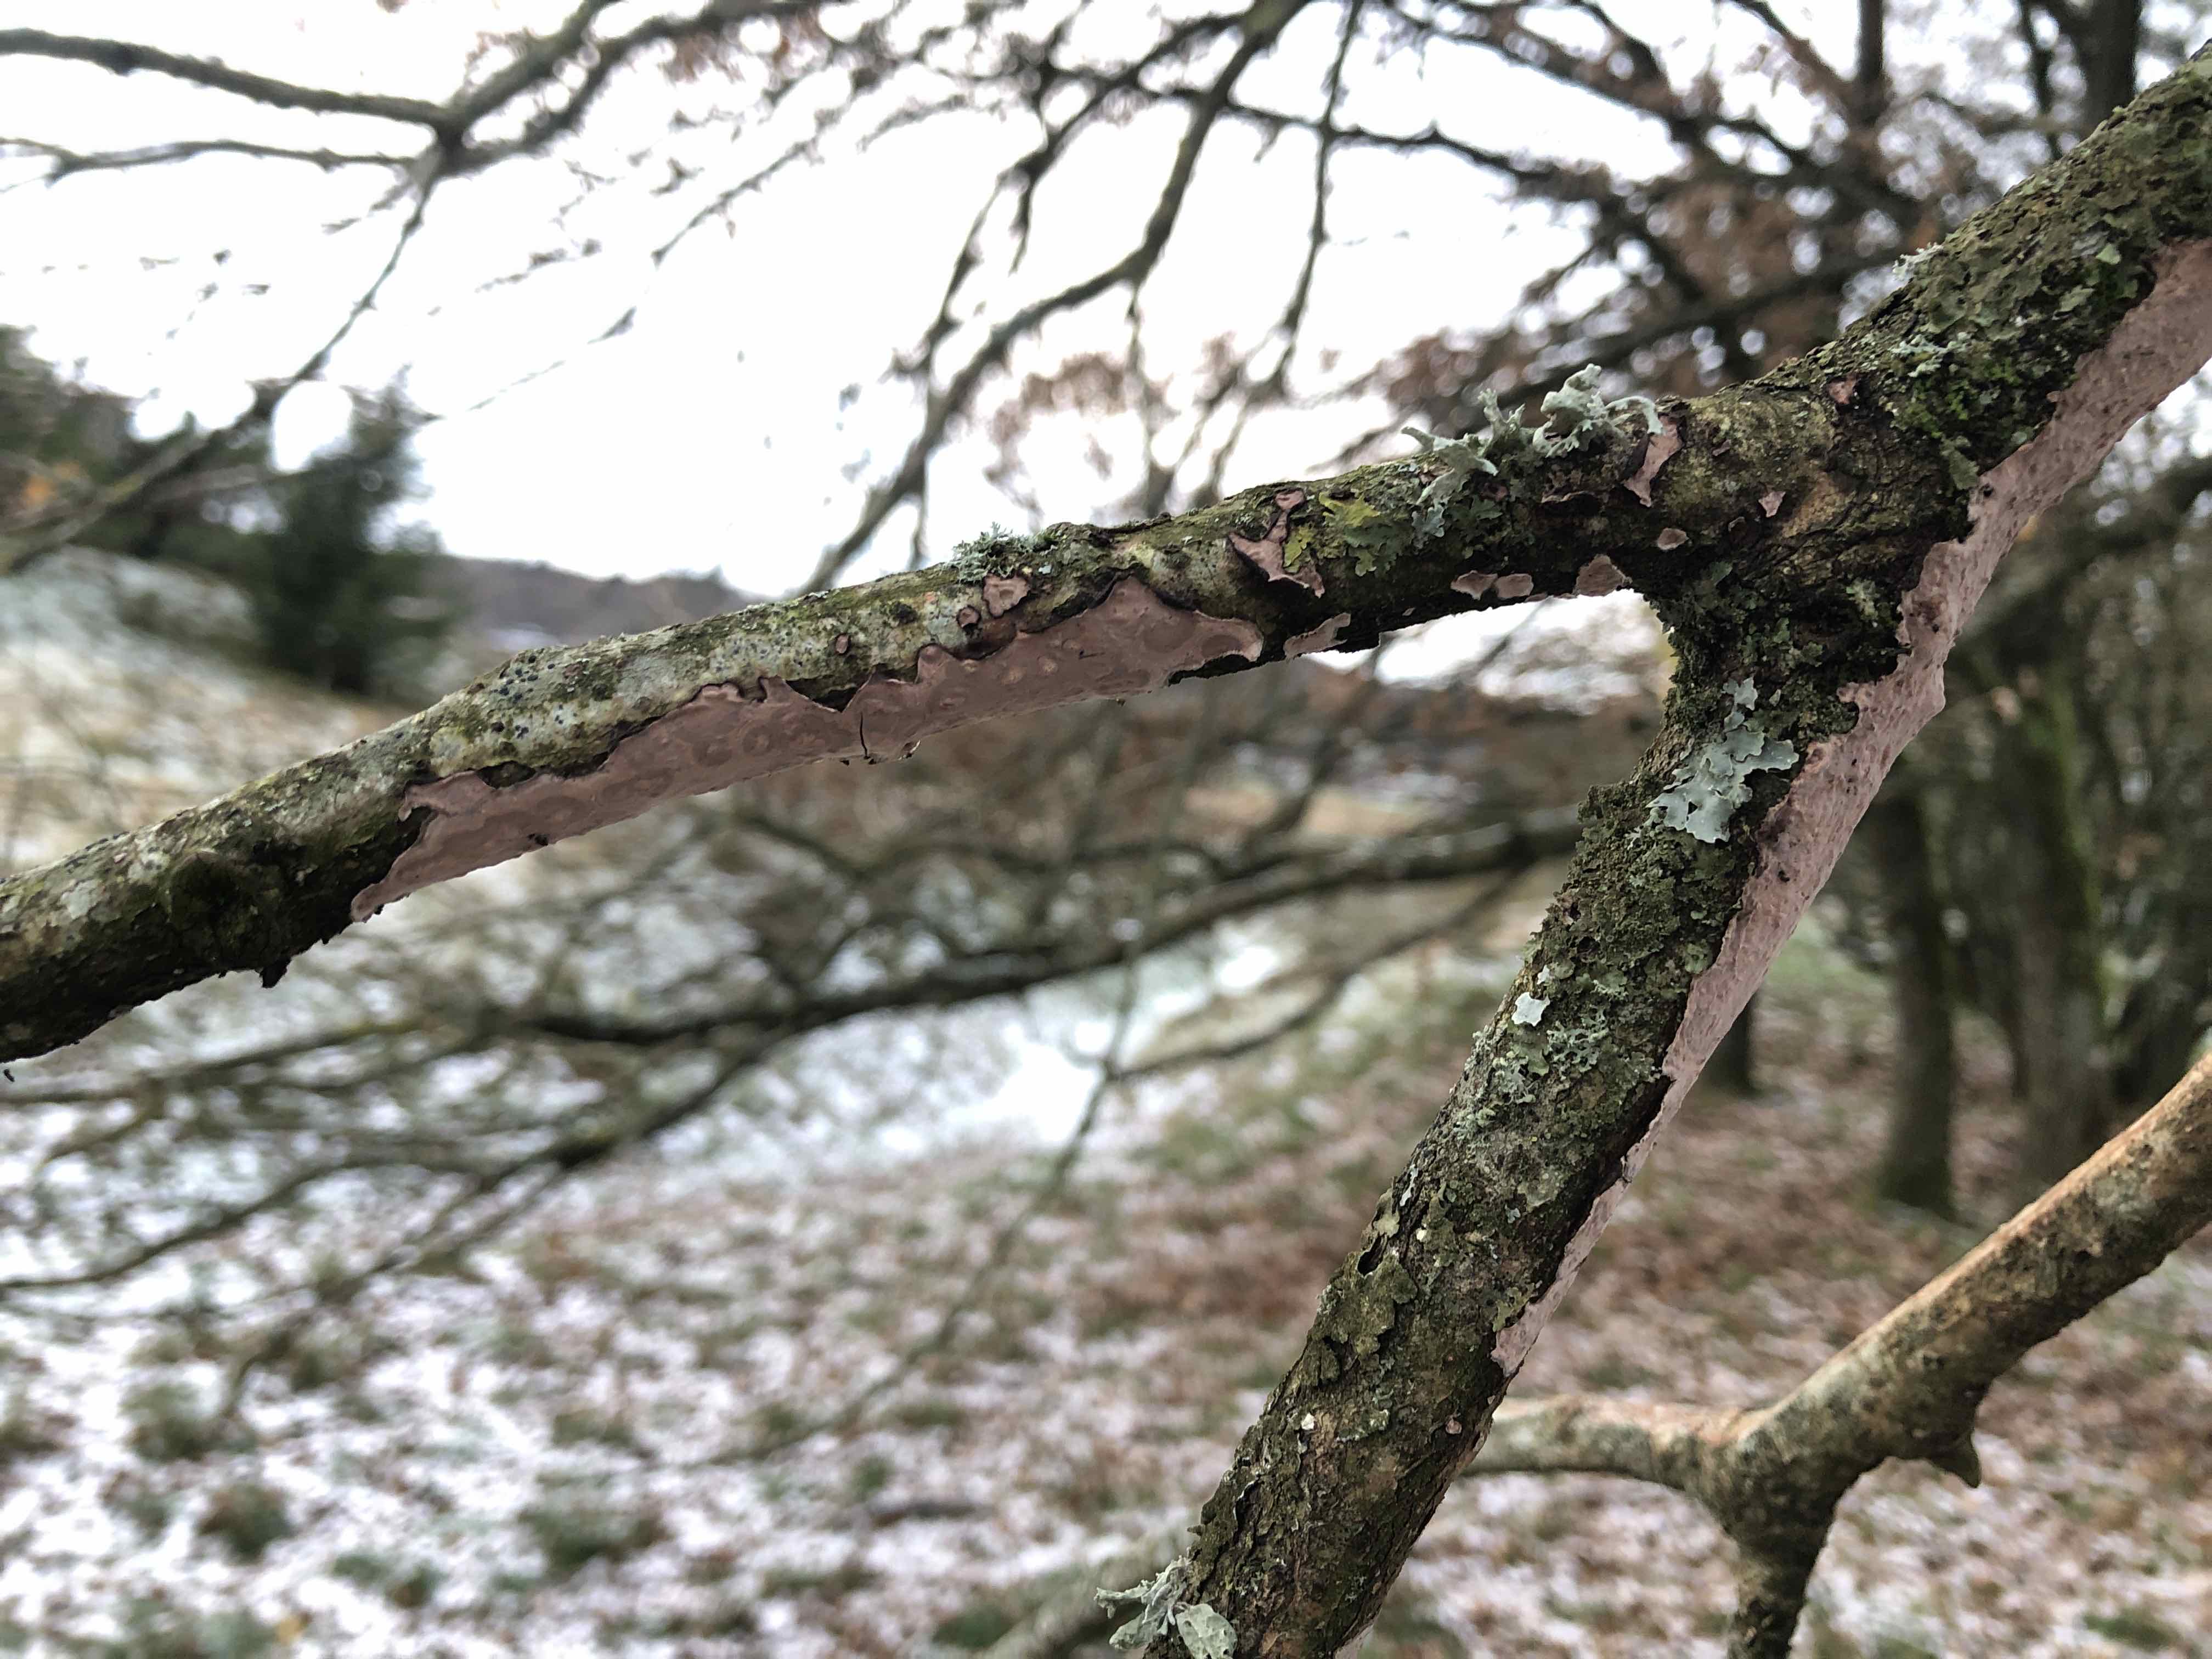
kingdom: Fungi
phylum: Basidiomycota
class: Agaricomycetes
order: Russulales
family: Peniophoraceae
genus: Peniophora
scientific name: Peniophora quercina
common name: ege-voksskind
